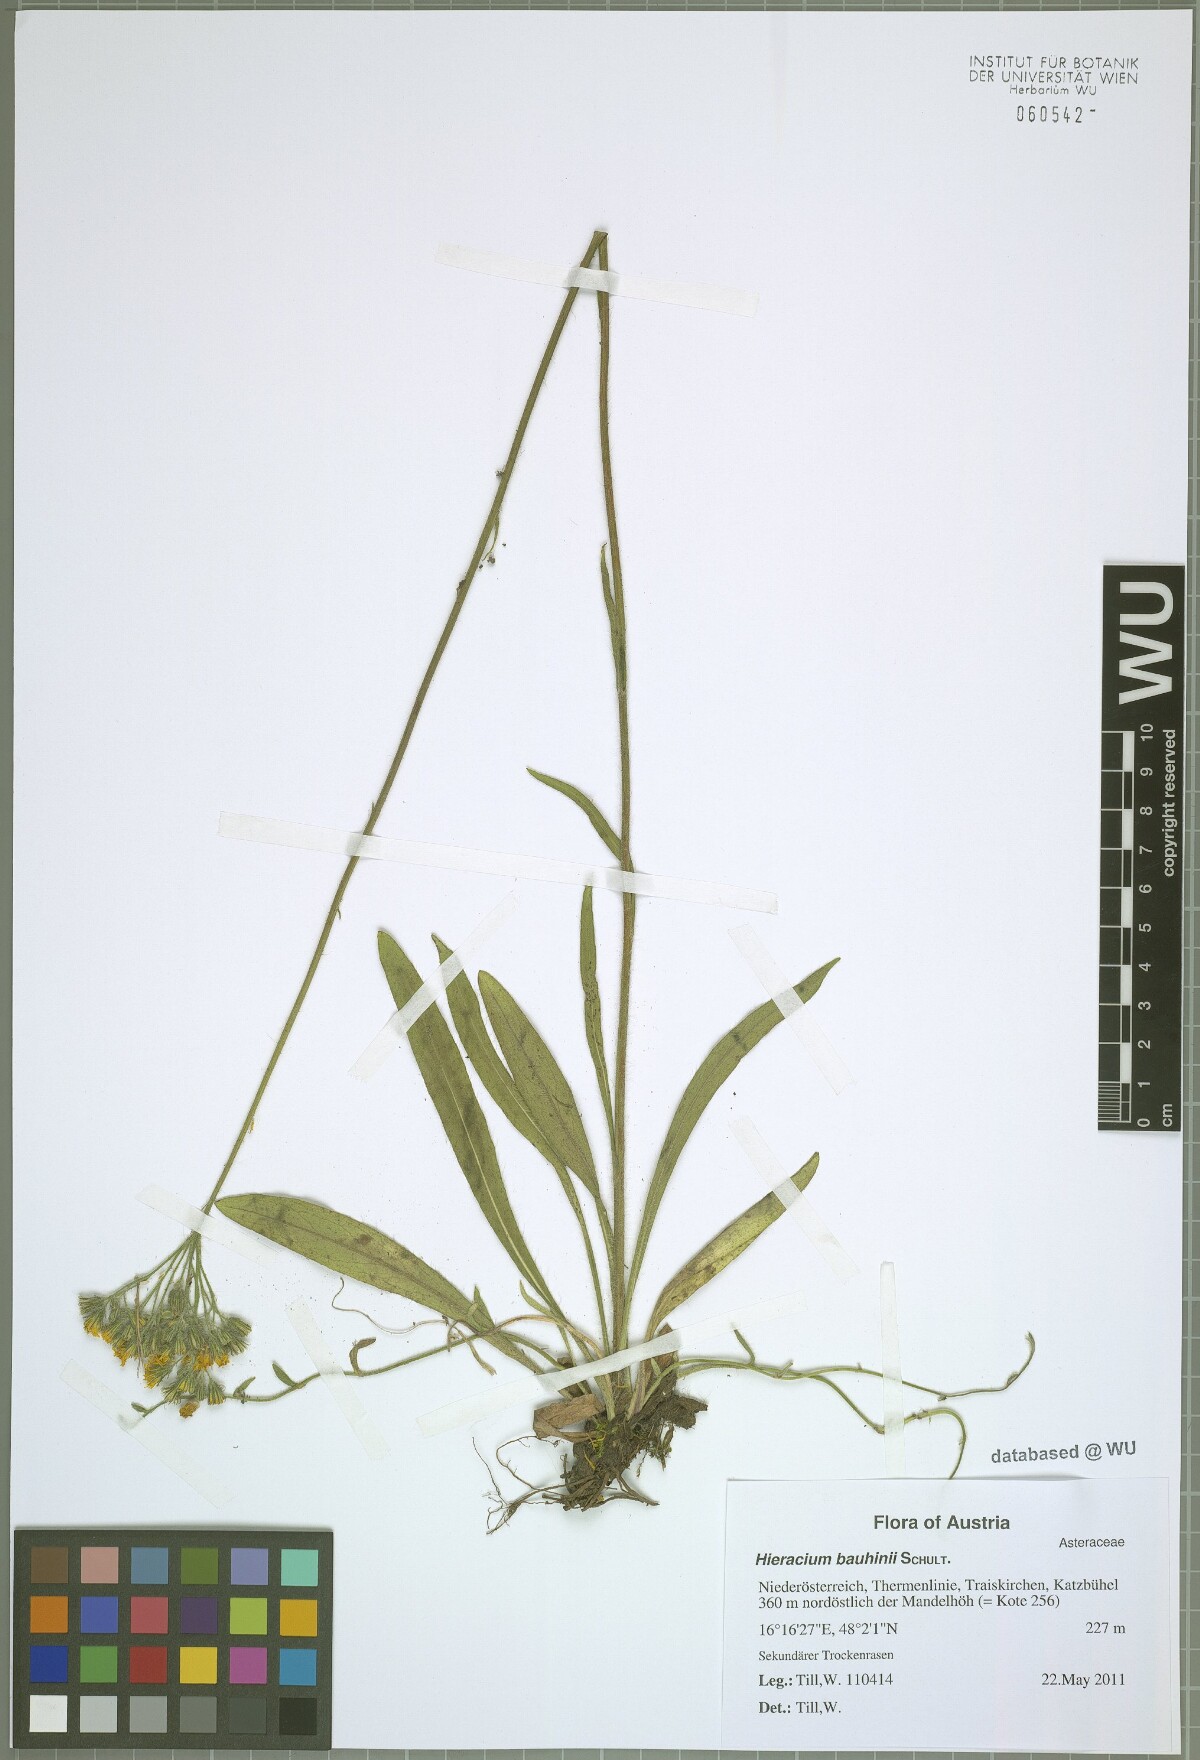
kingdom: Plantae
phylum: Tracheophyta
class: Magnoliopsida
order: Asterales
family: Asteraceae
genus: Pilosella
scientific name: Pilosella bauhini
